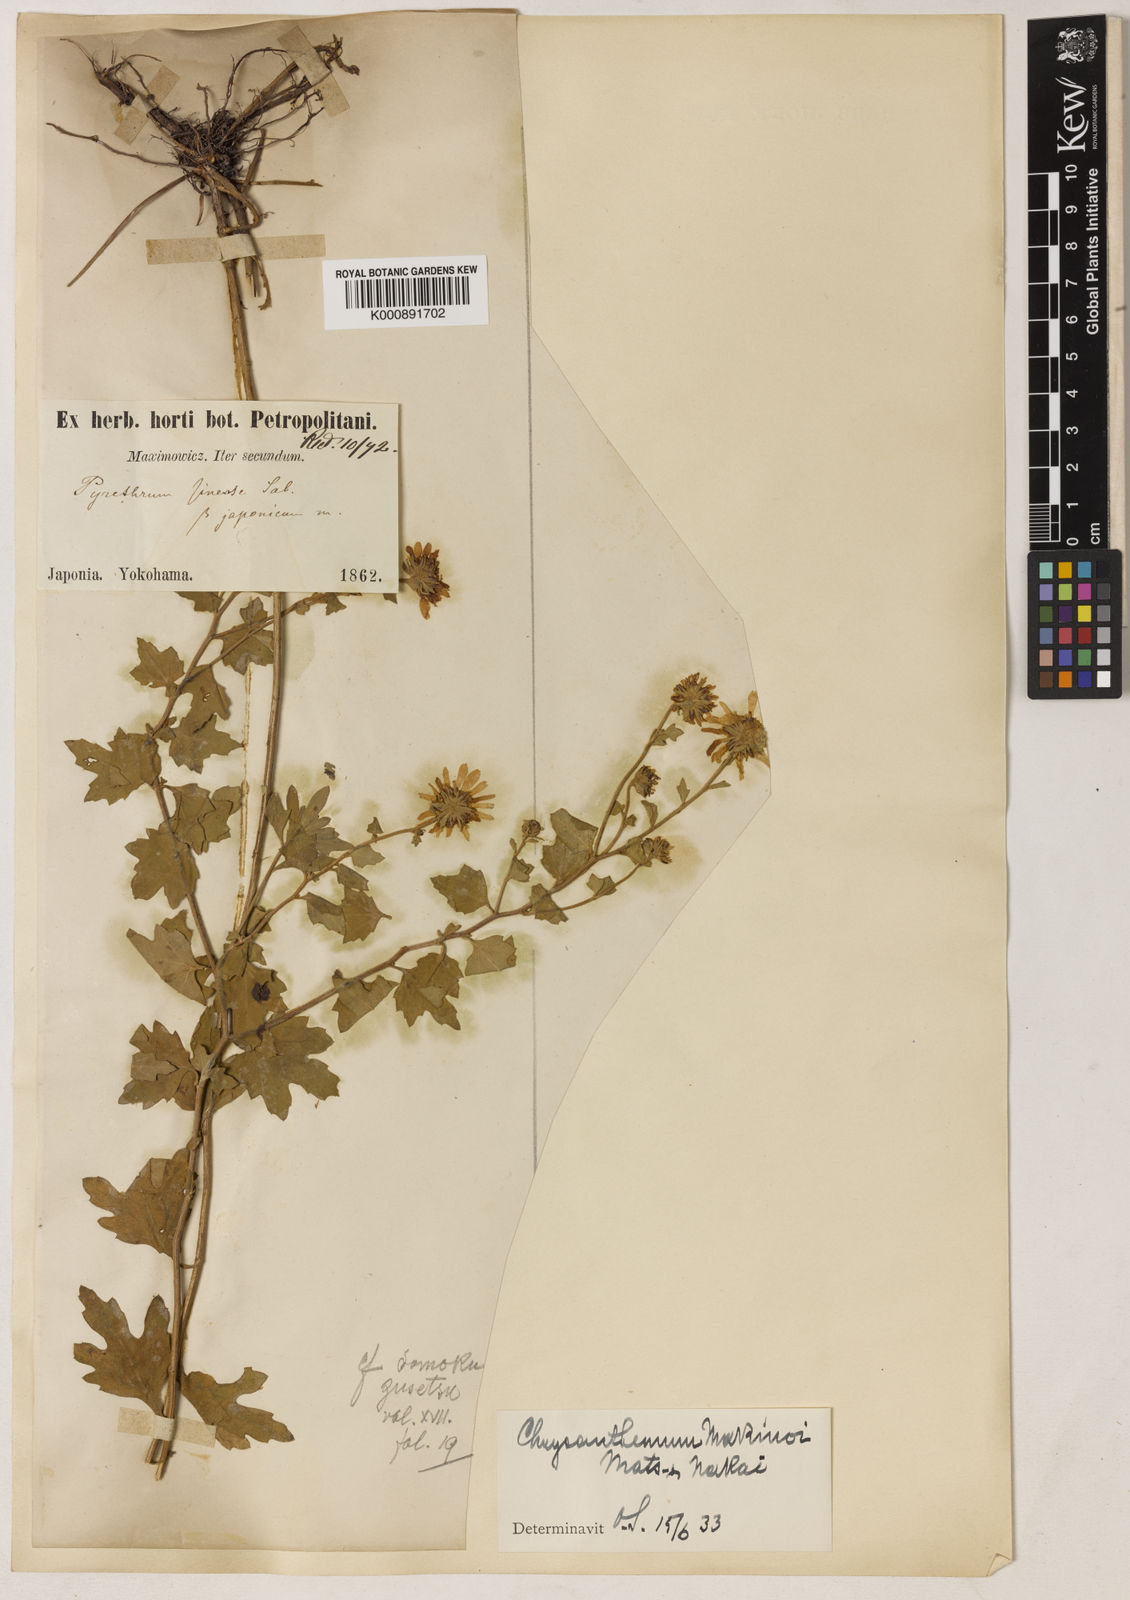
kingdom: Plantae
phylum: Tracheophyta
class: Magnoliopsida
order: Asterales
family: Asteraceae
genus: Chrysanthemum
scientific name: Chrysanthemum makinoi
